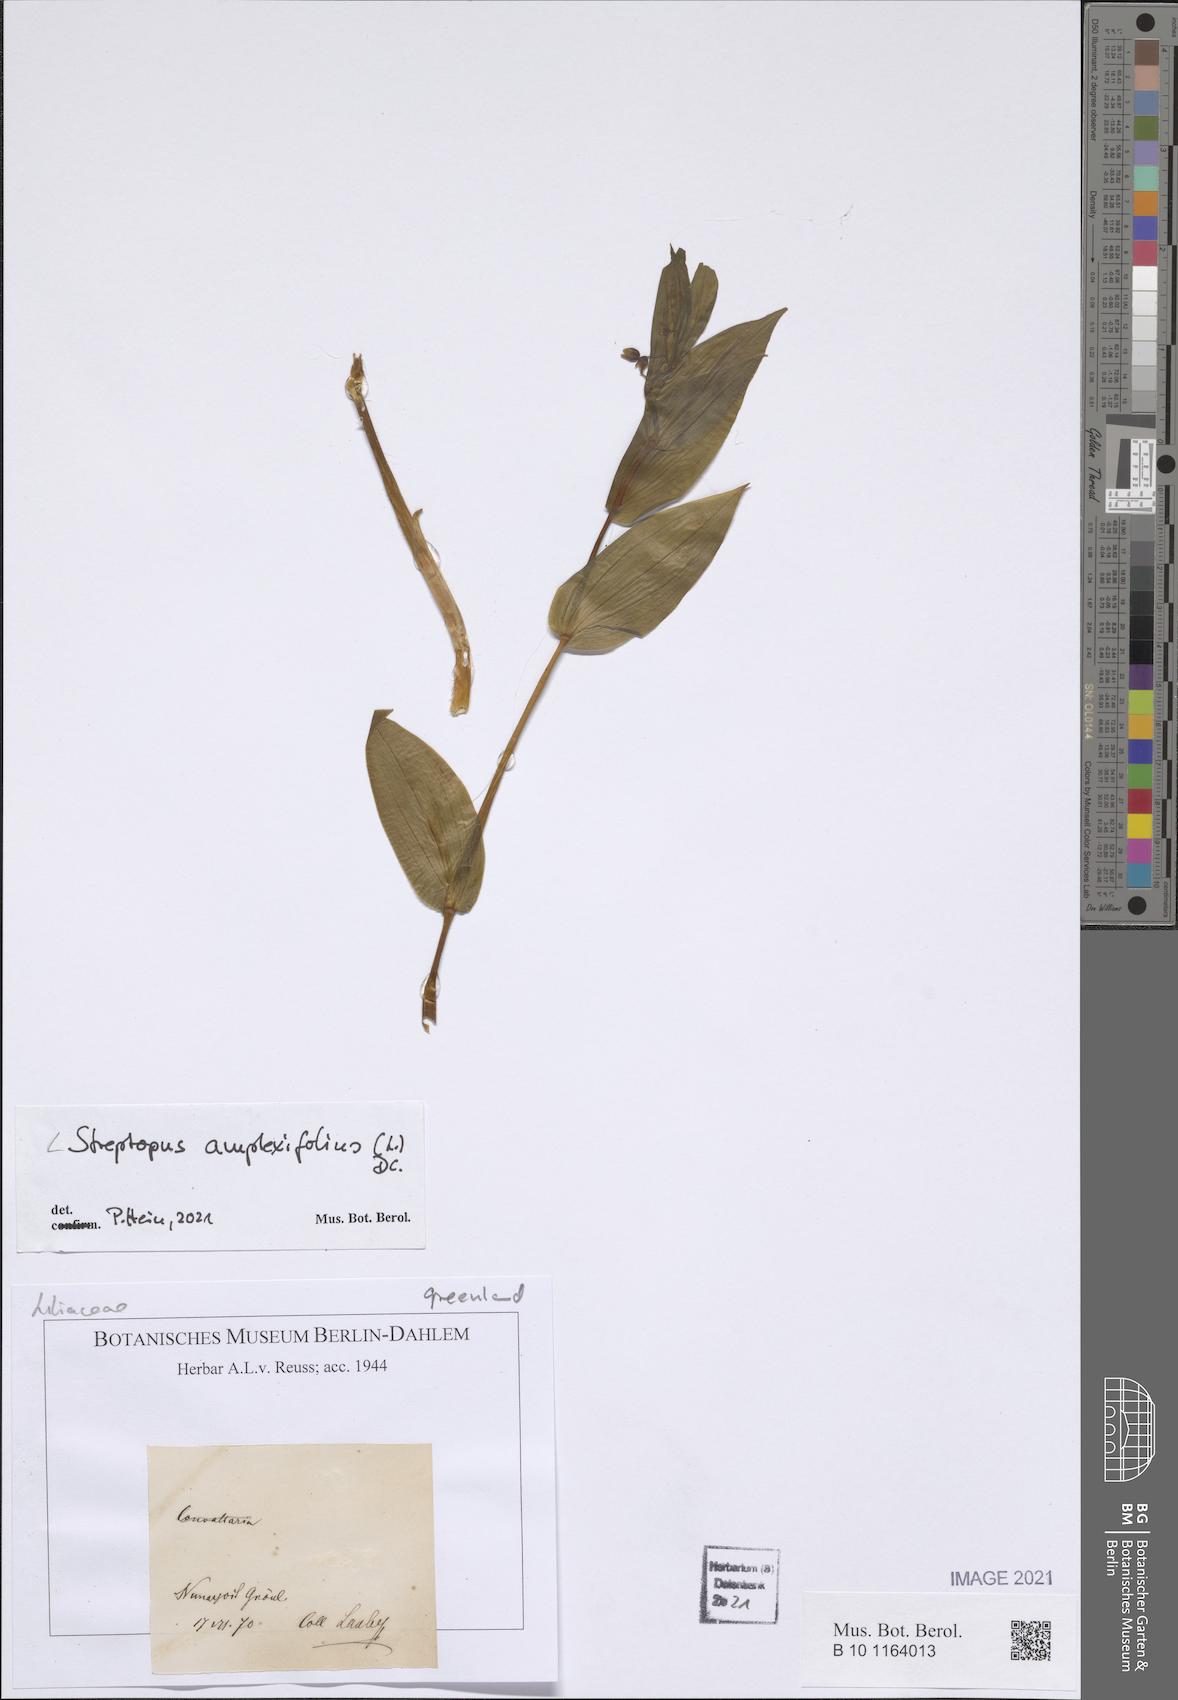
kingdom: Plantae
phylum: Tracheophyta
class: Liliopsida
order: Liliales
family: Liliaceae
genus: Streptopus
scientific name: Streptopus amplexifolius
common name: Clasp twisted stalk
